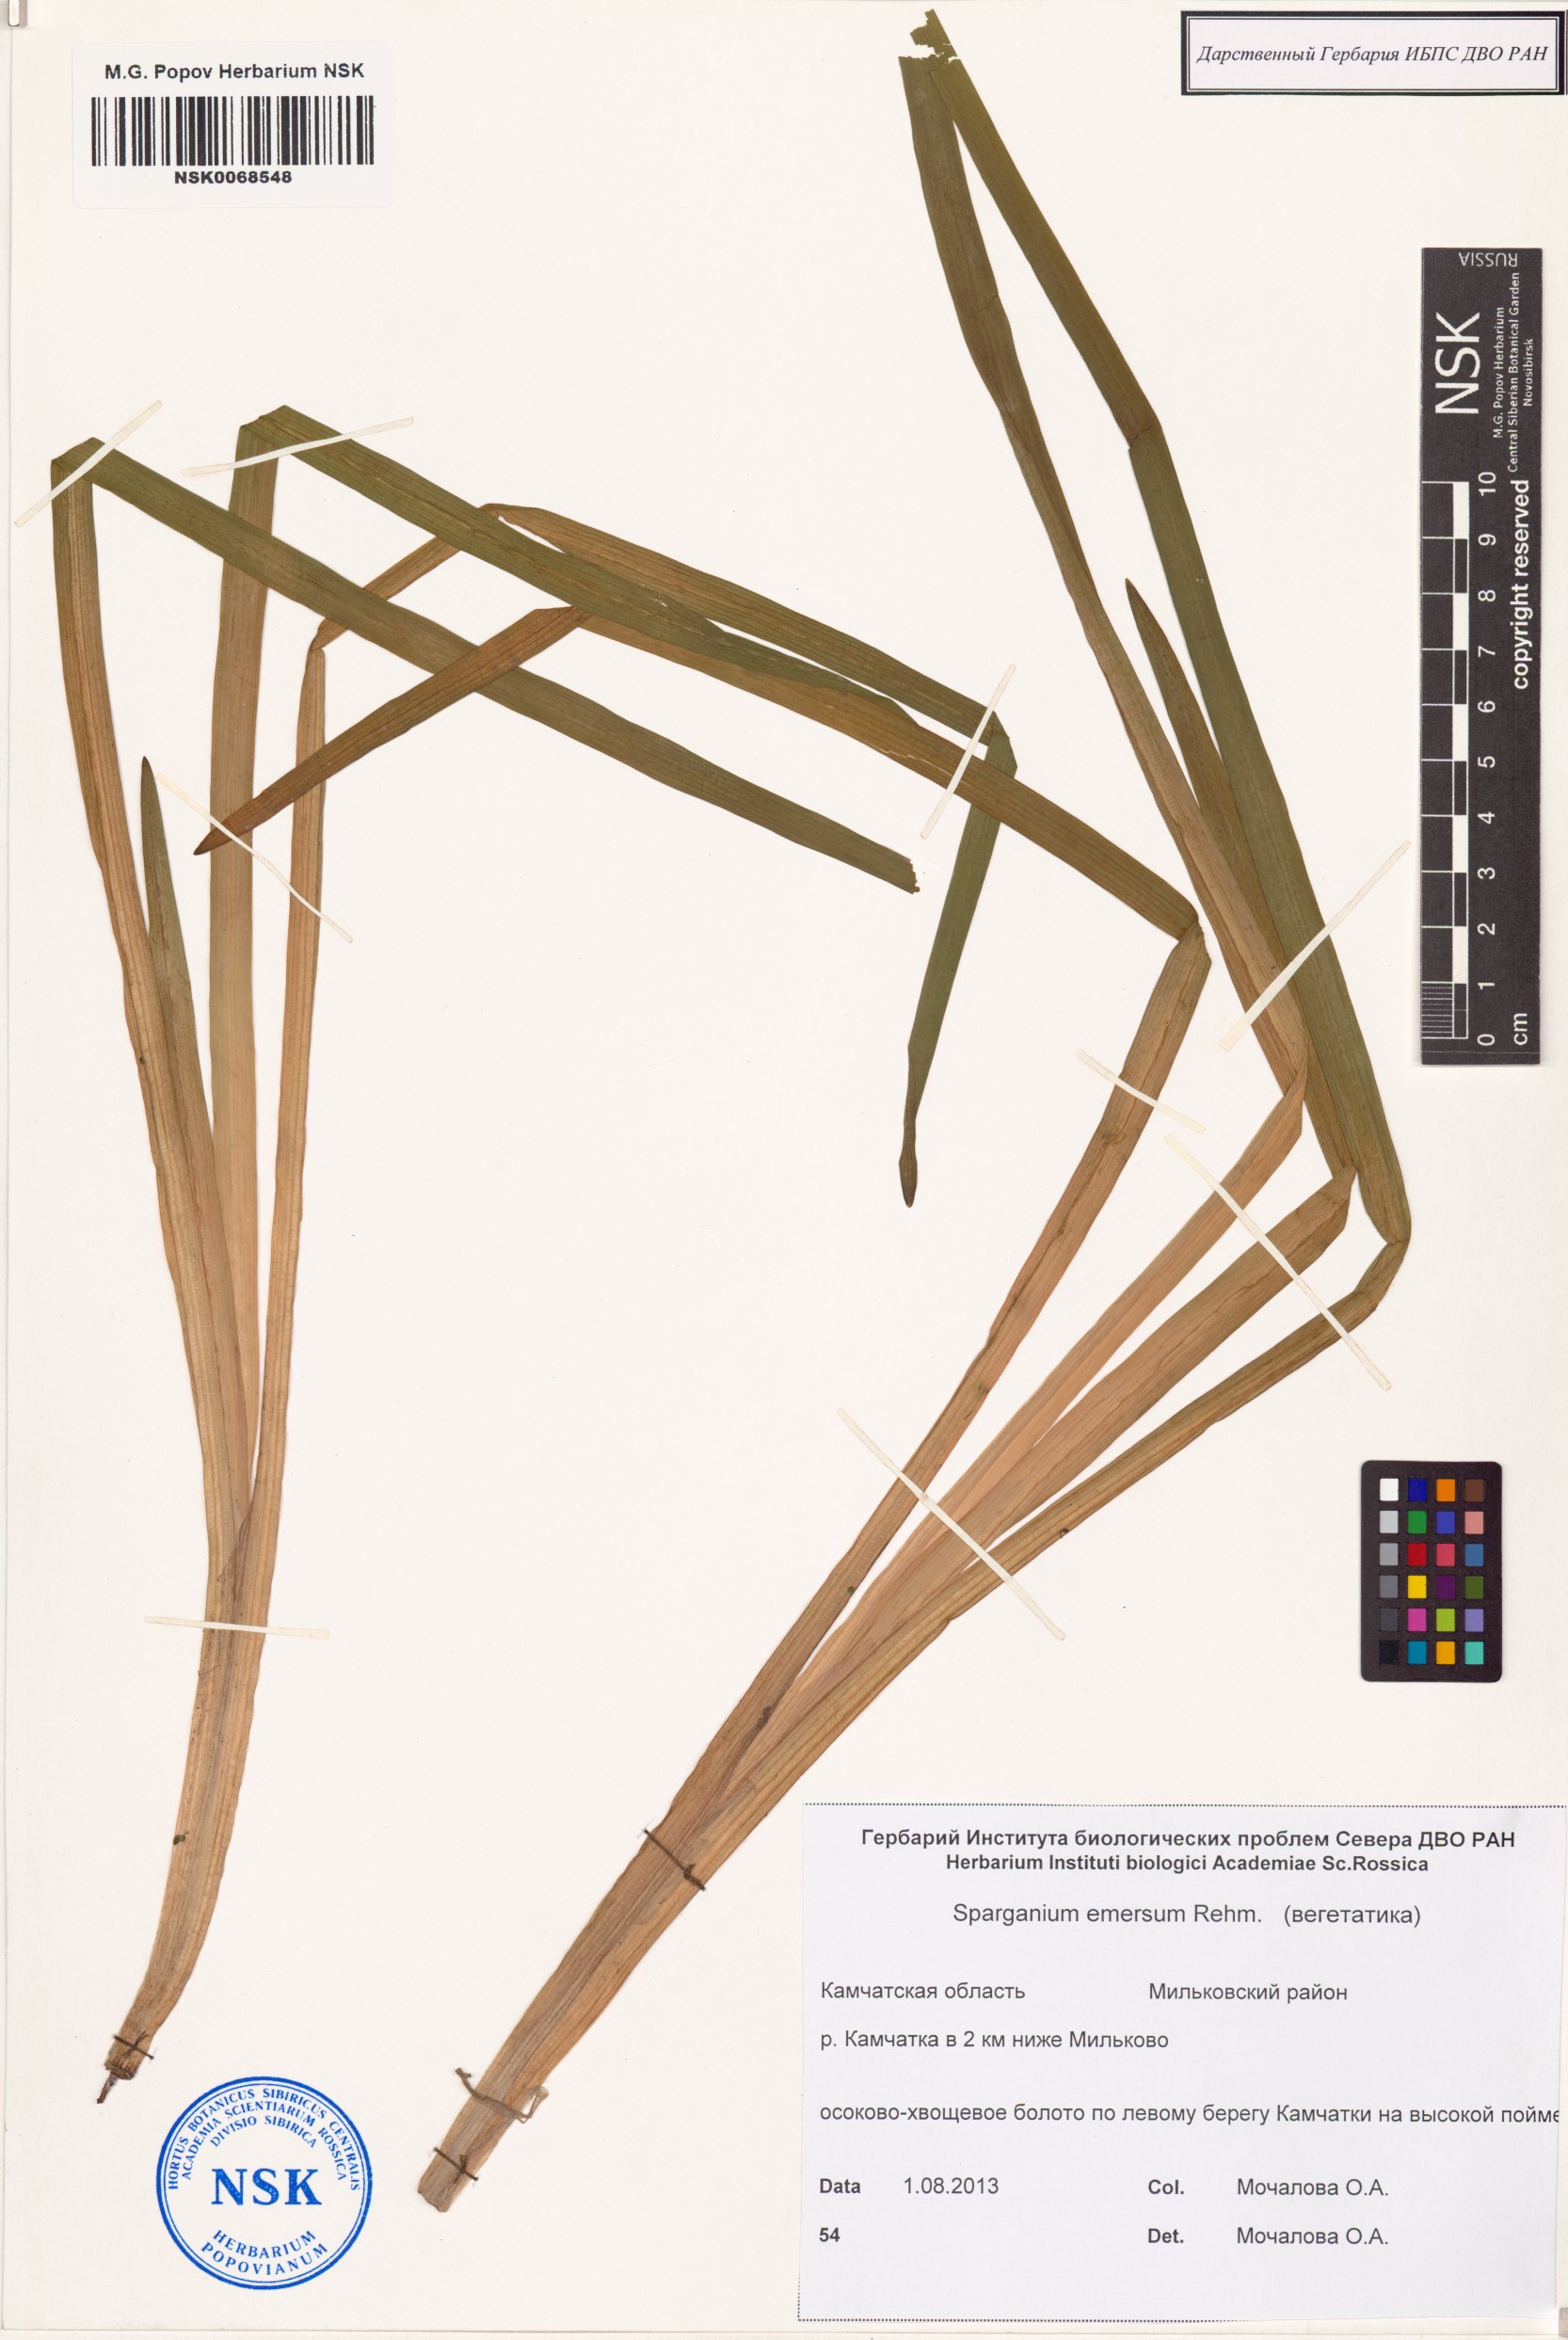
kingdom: Plantae
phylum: Tracheophyta
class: Liliopsida
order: Poales
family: Typhaceae
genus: Sparganium
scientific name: Sparganium emersum
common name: Unbranched bur-reed
